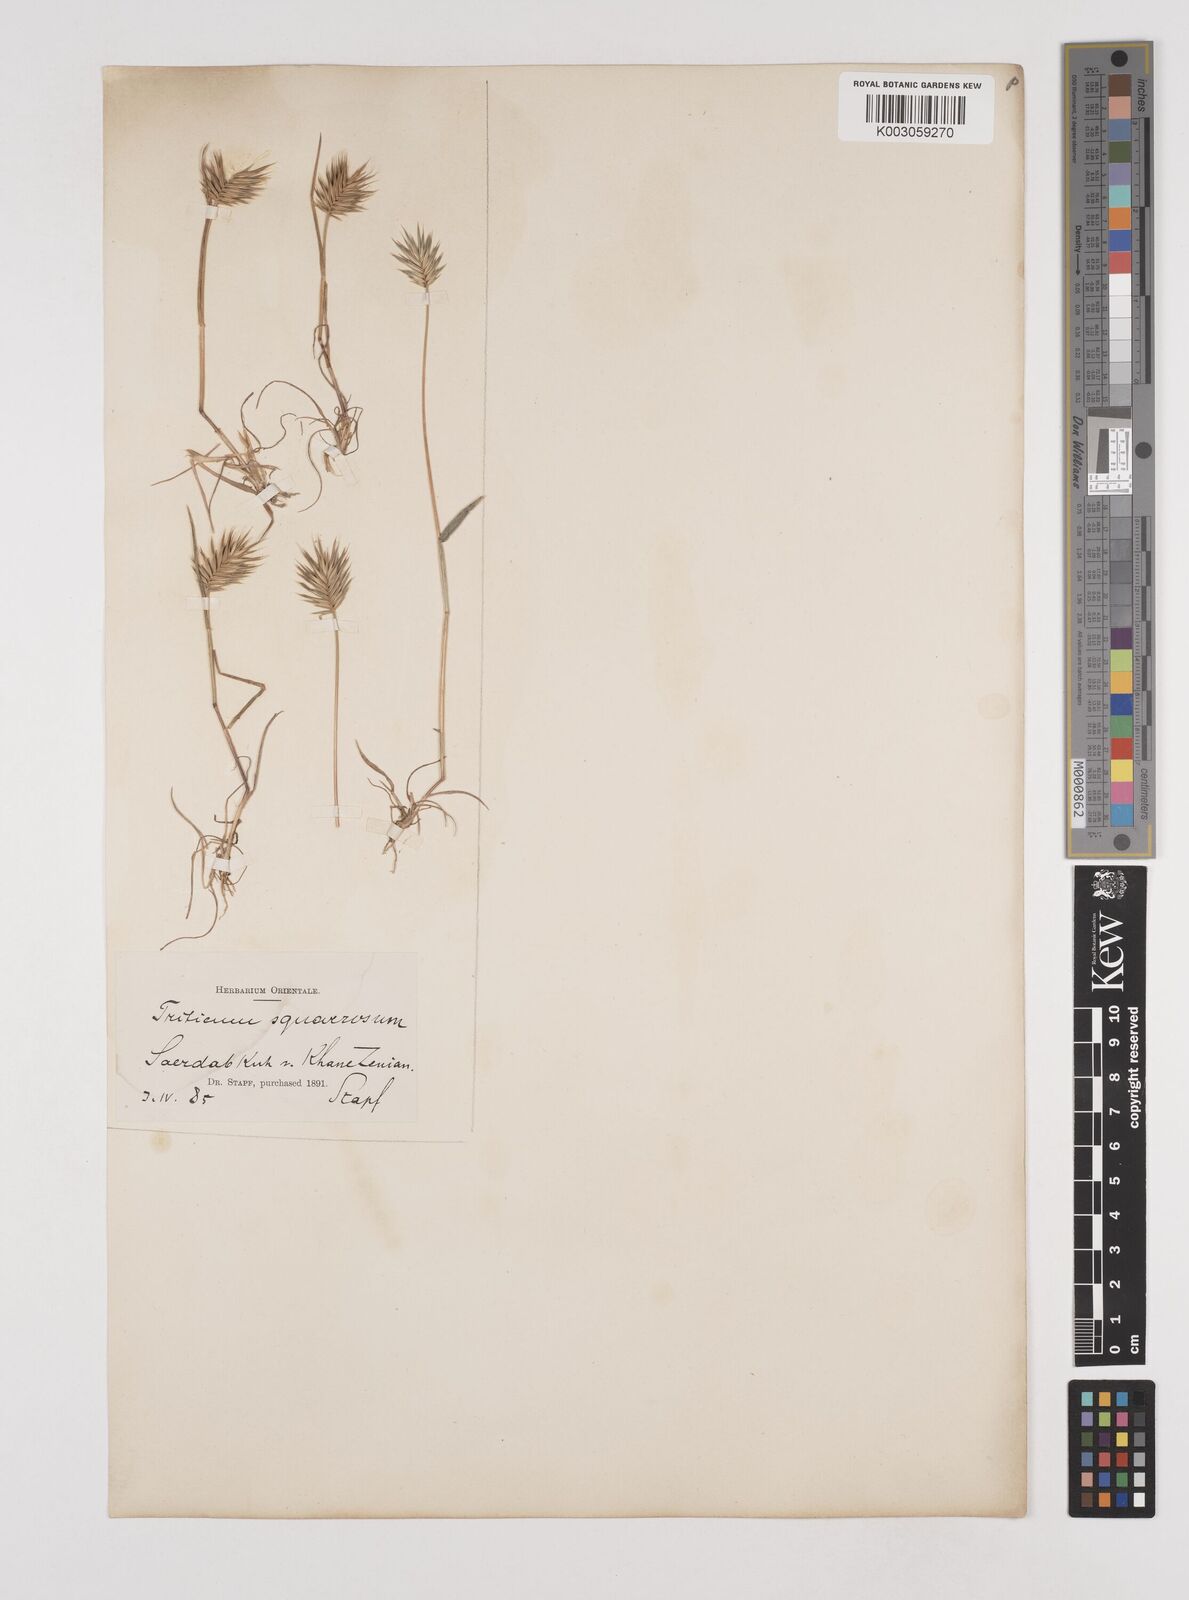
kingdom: Plantae
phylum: Tracheophyta
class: Liliopsida
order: Poales
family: Poaceae
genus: Eremopyrum
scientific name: Eremopyrum bonaepartis
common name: Tapertip false wheatgrass
